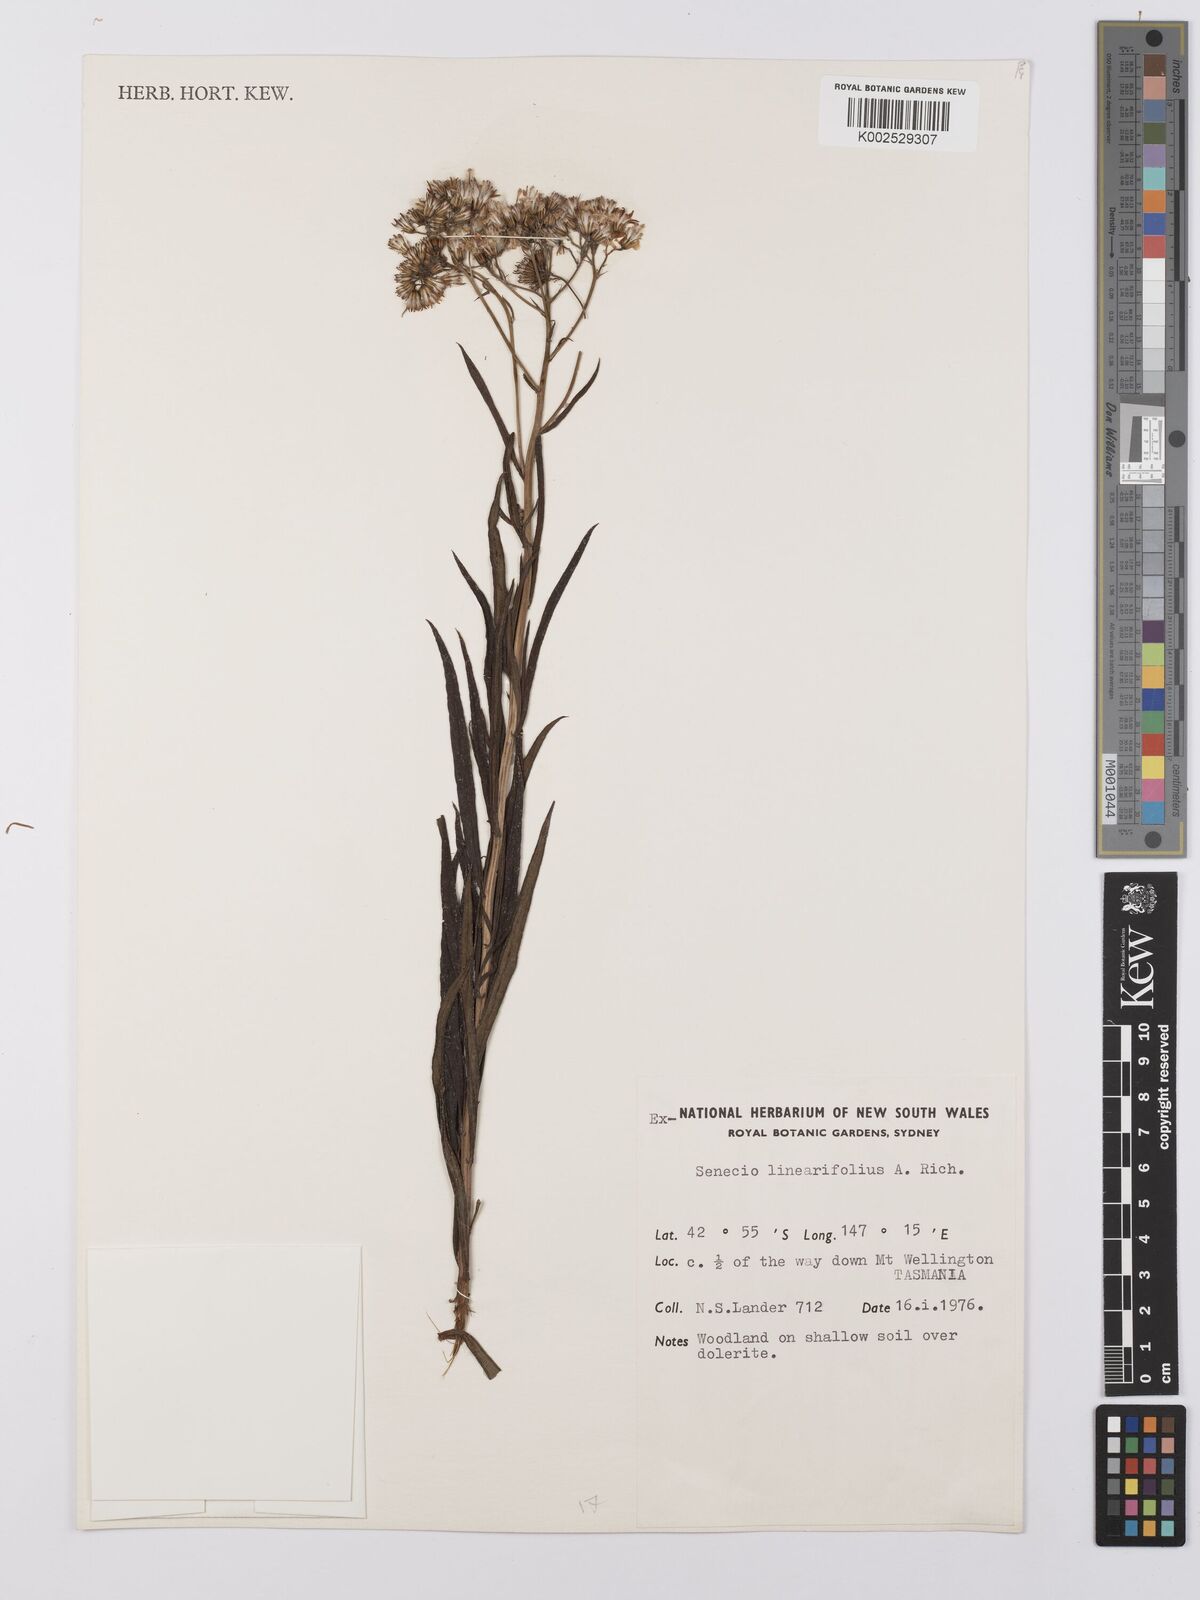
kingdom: Plantae
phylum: Tracheophyta
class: Magnoliopsida
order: Asterales
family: Asteraceae
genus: Senecio
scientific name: Senecio linearifolius
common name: Fireweed groundsel
